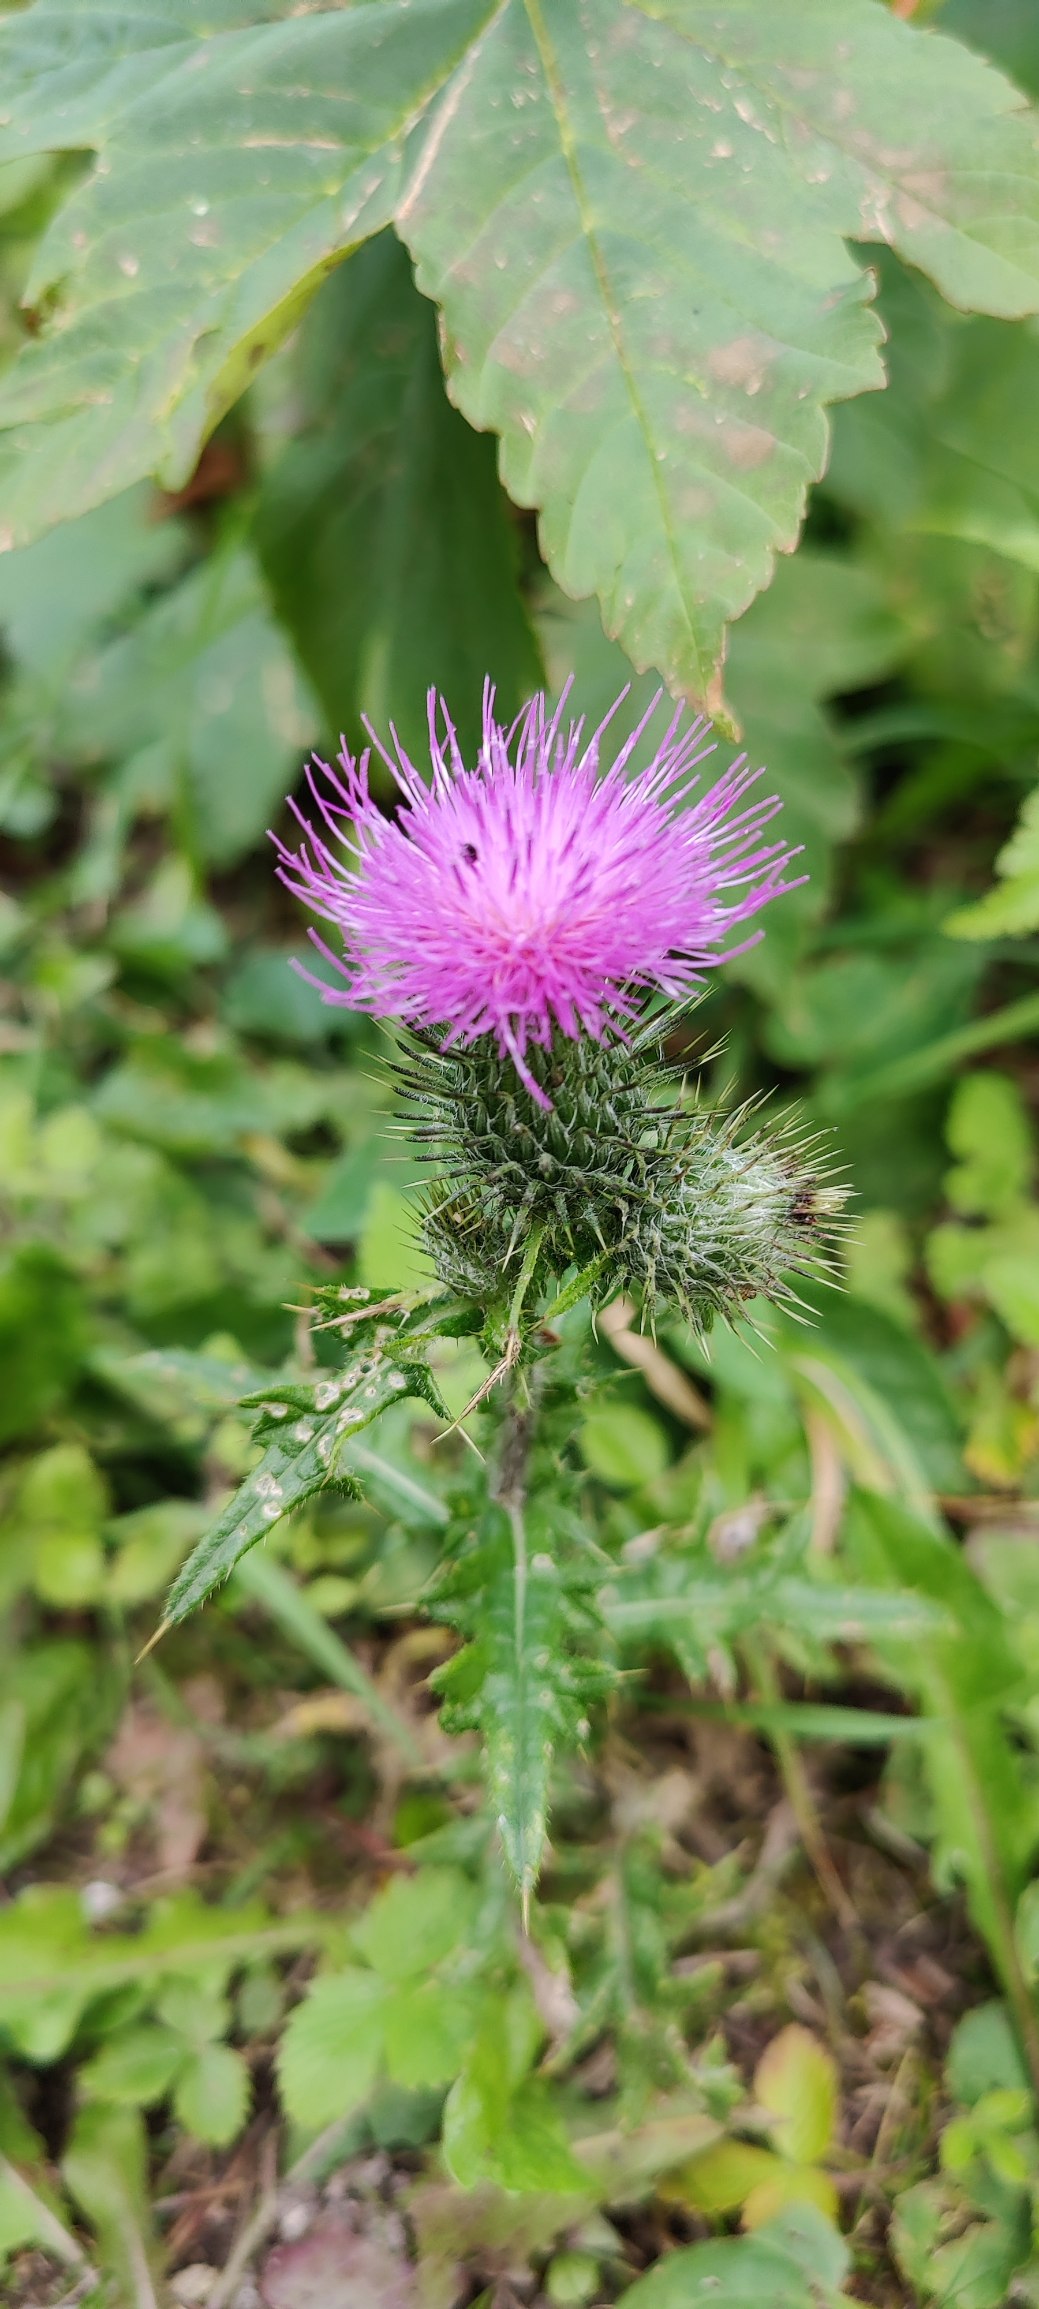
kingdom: Plantae
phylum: Tracheophyta
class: Magnoliopsida
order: Asterales
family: Asteraceae
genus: Cirsium
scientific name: Cirsium vulgare
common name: Horse-tidsel
